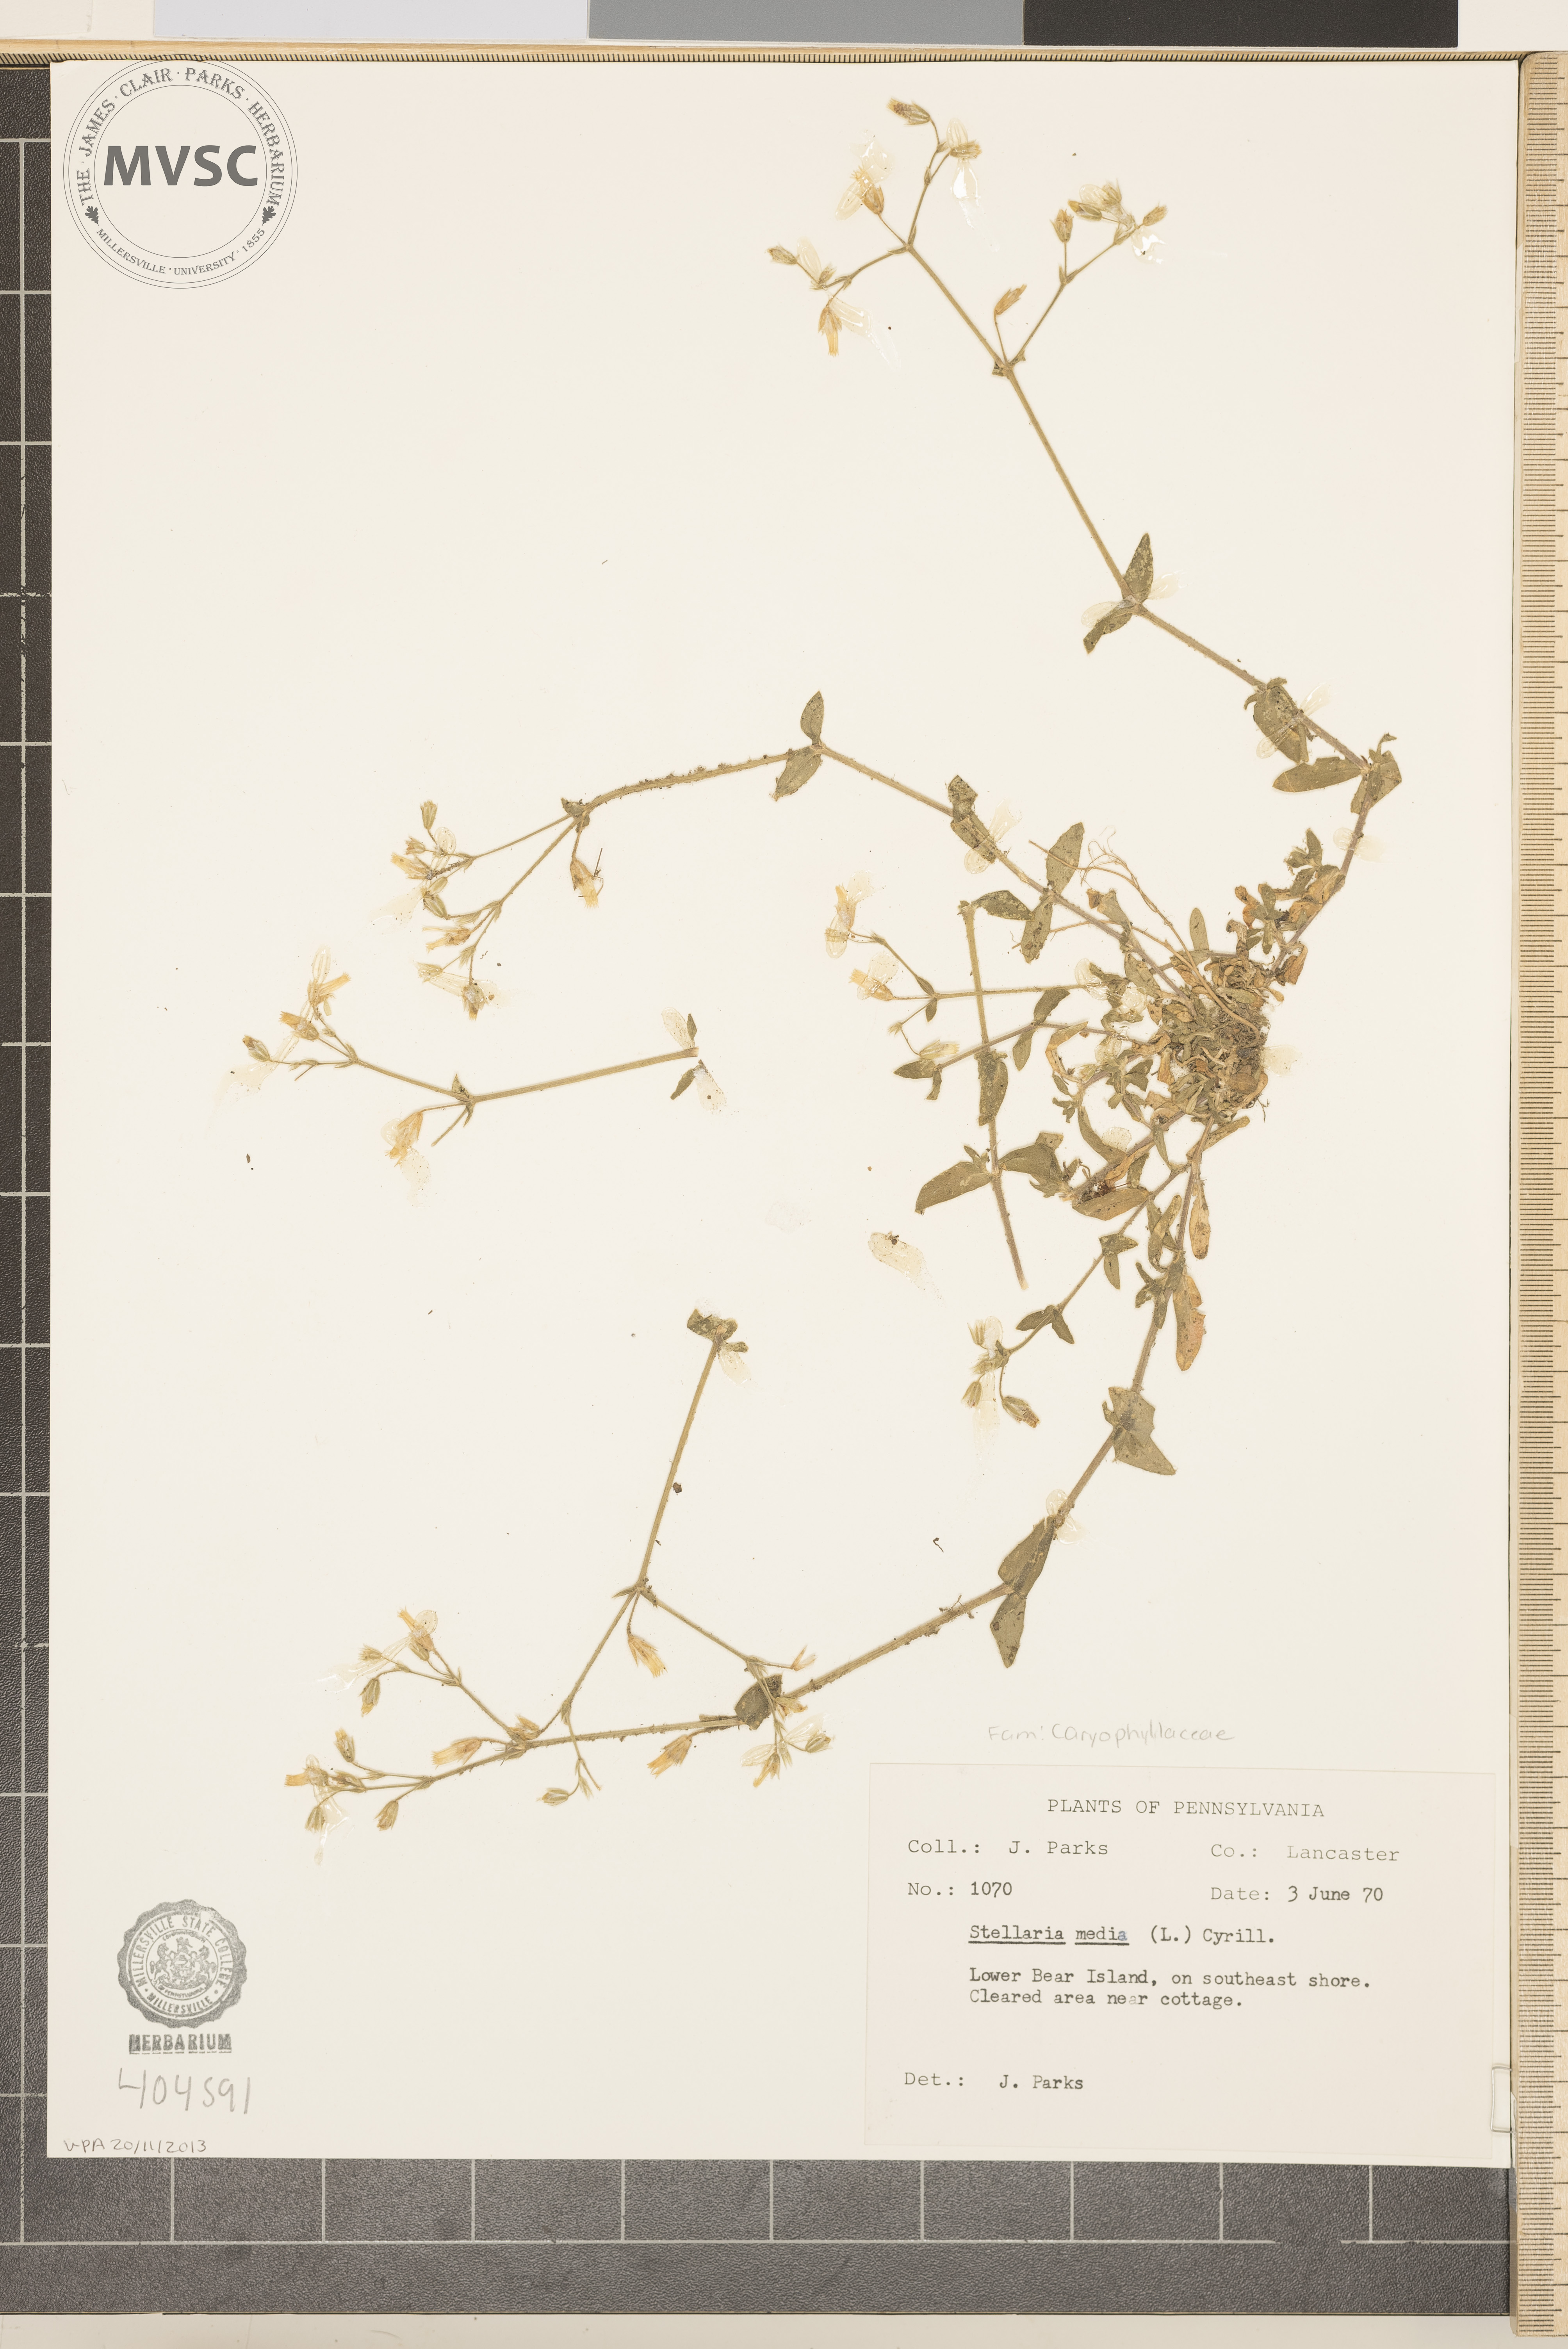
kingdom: Plantae
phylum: Tracheophyta
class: Magnoliopsida
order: Caryophyllales
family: Caryophyllaceae
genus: Stellaria
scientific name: Stellaria media
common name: Common chickweed
